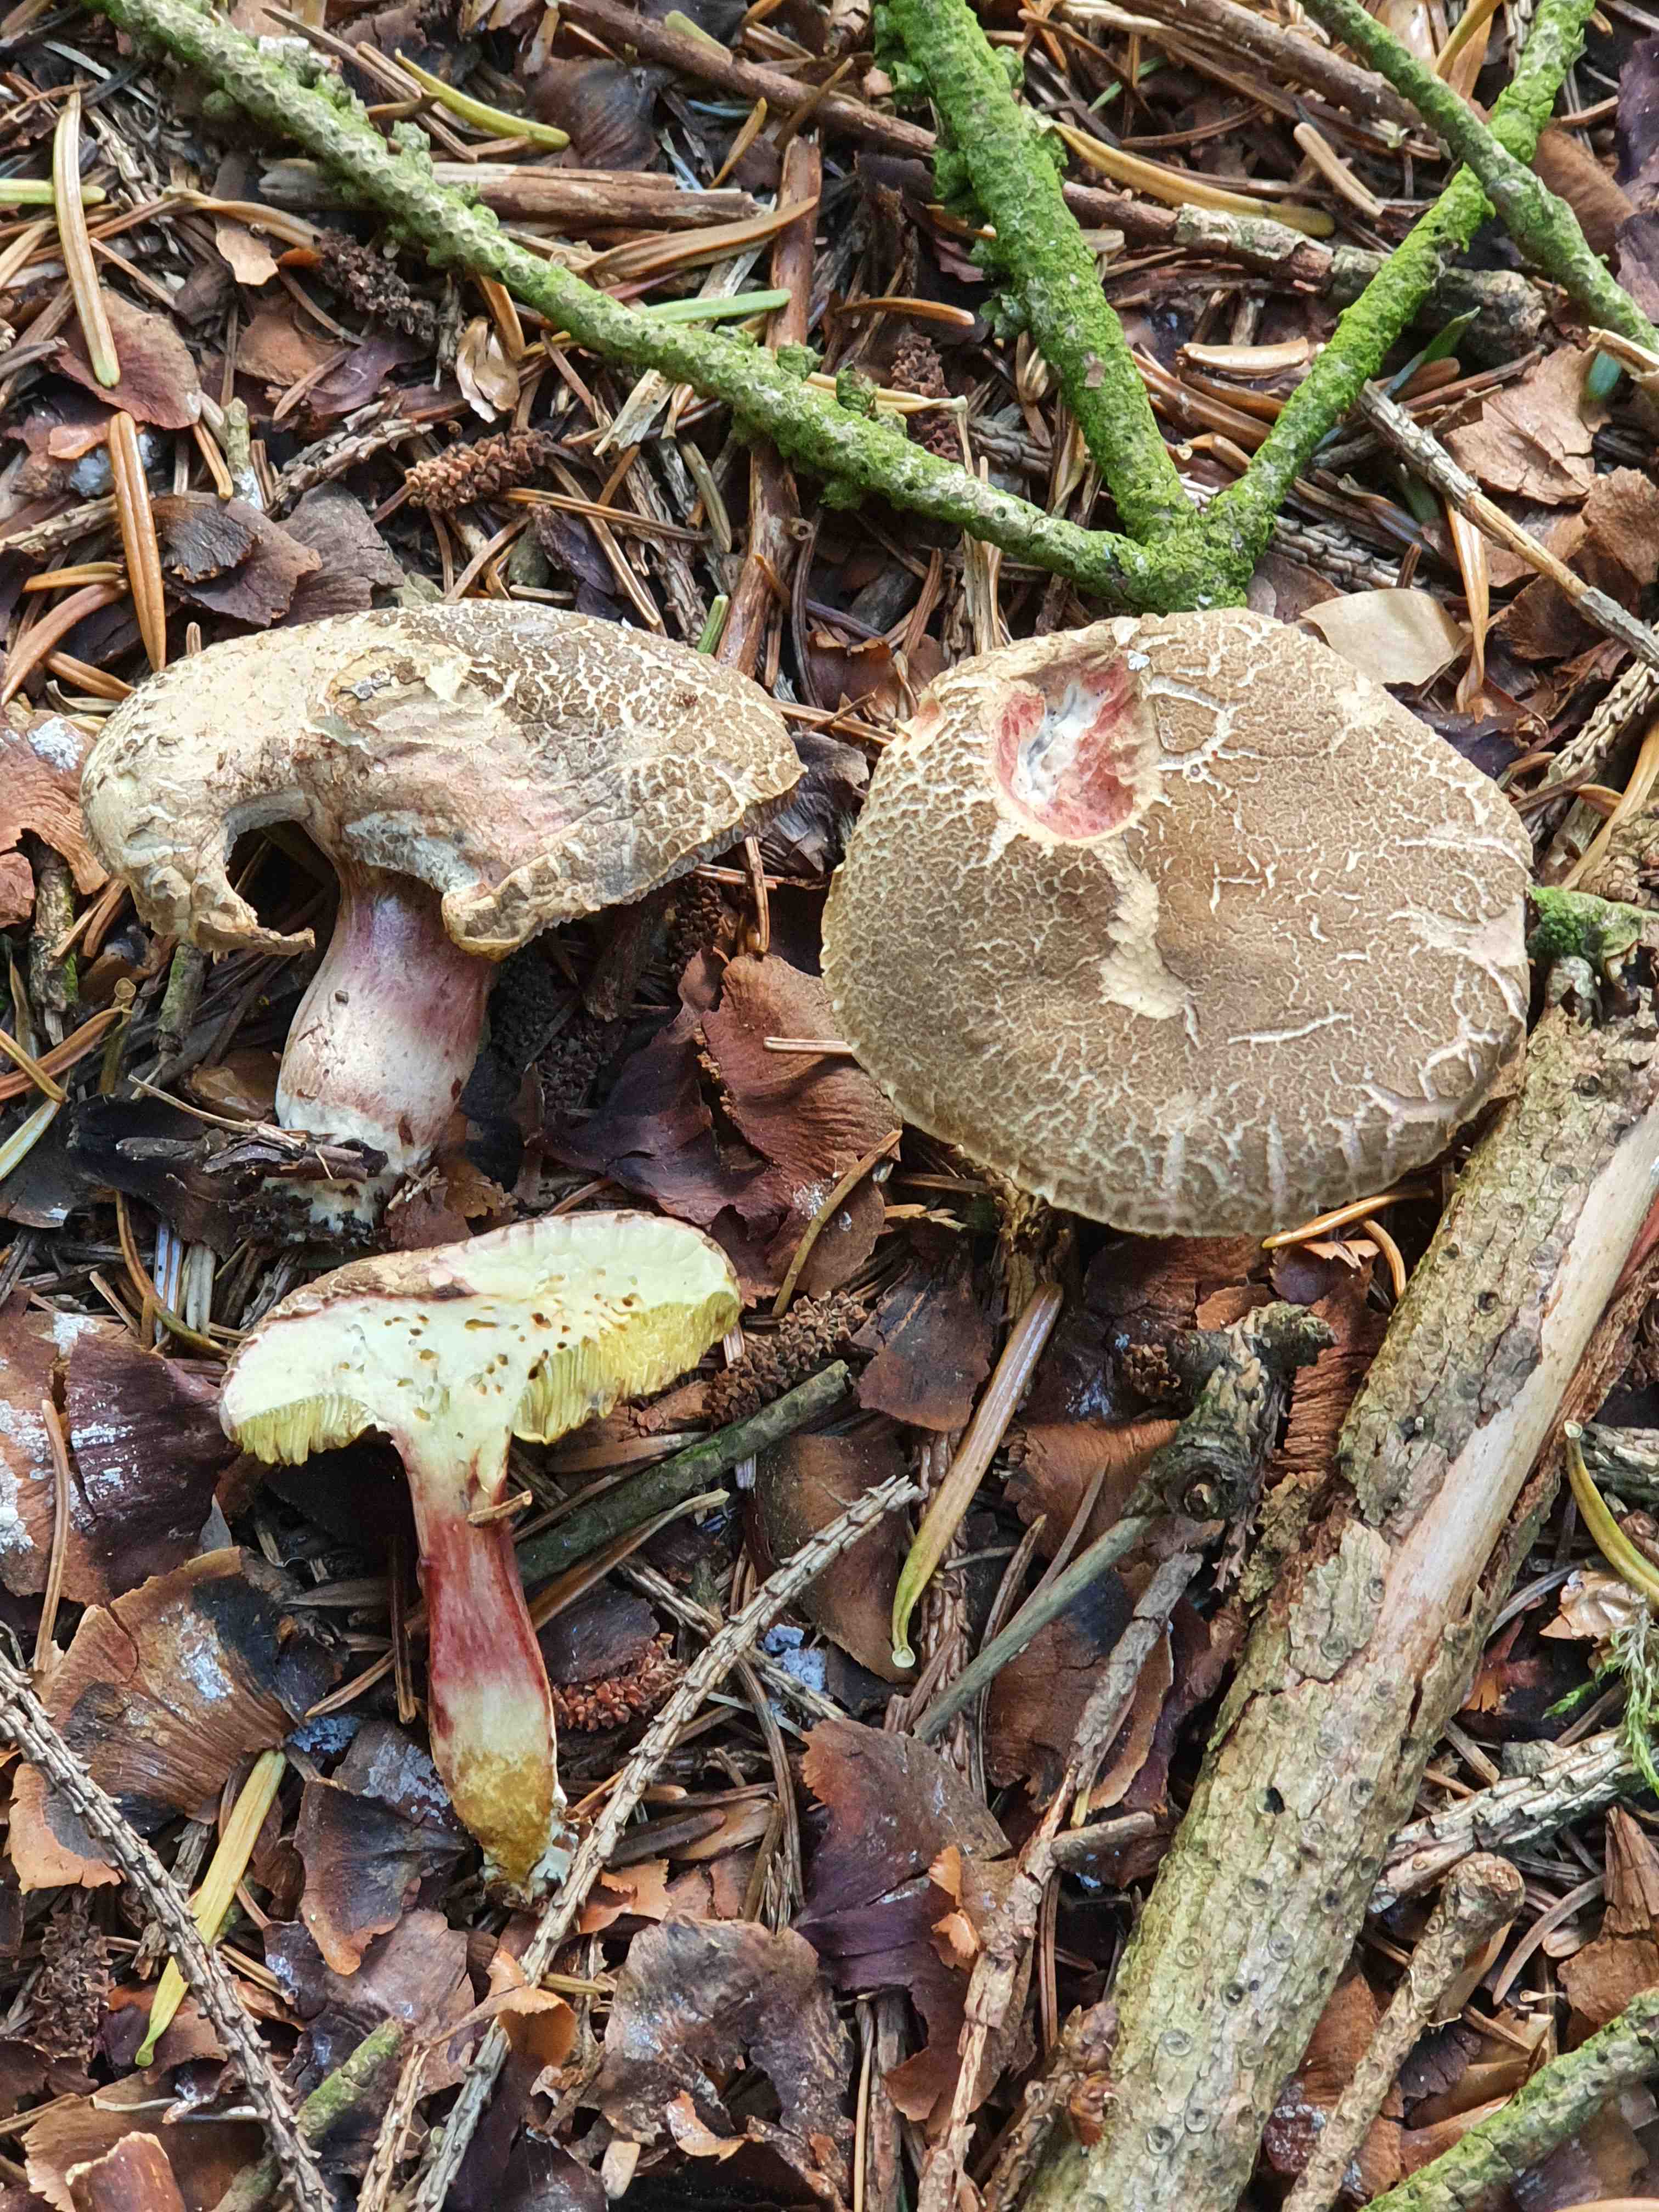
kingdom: Fungi
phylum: Basidiomycota
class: Agaricomycetes
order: Boletales
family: Boletaceae
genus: Xerocomellus
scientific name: Xerocomellus chrysenteron
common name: rødsprukken rørhat
